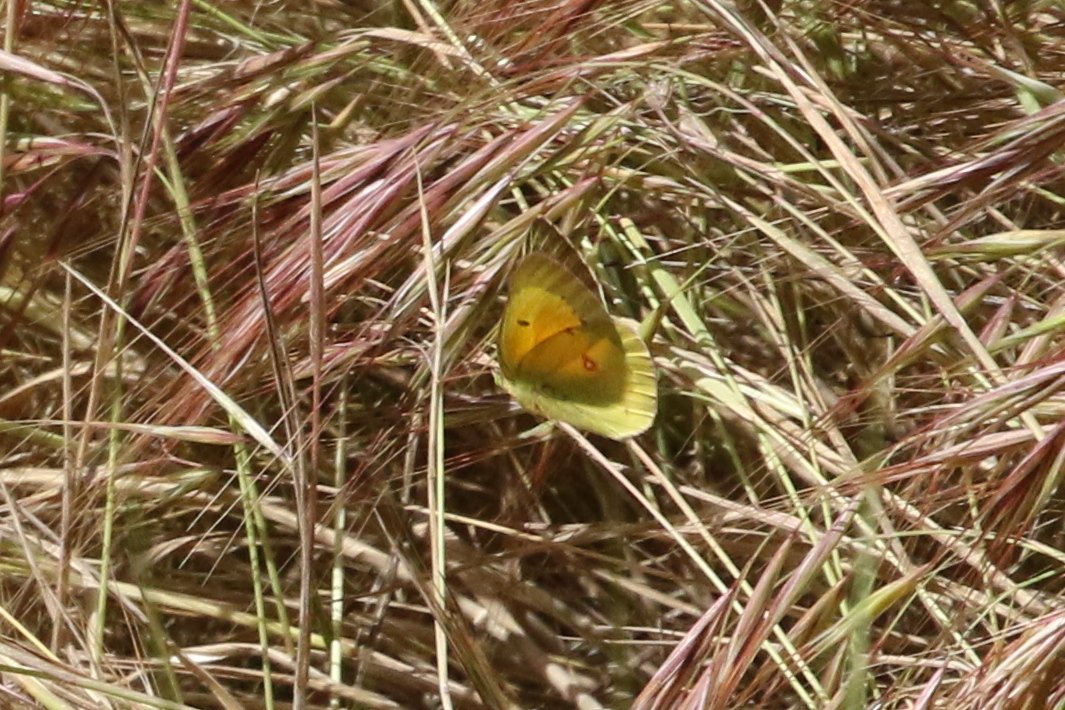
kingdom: Animalia
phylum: Arthropoda
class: Insecta
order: Lepidoptera
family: Pieridae
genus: Colias
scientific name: Colias occidentalis
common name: Western Sulphur
